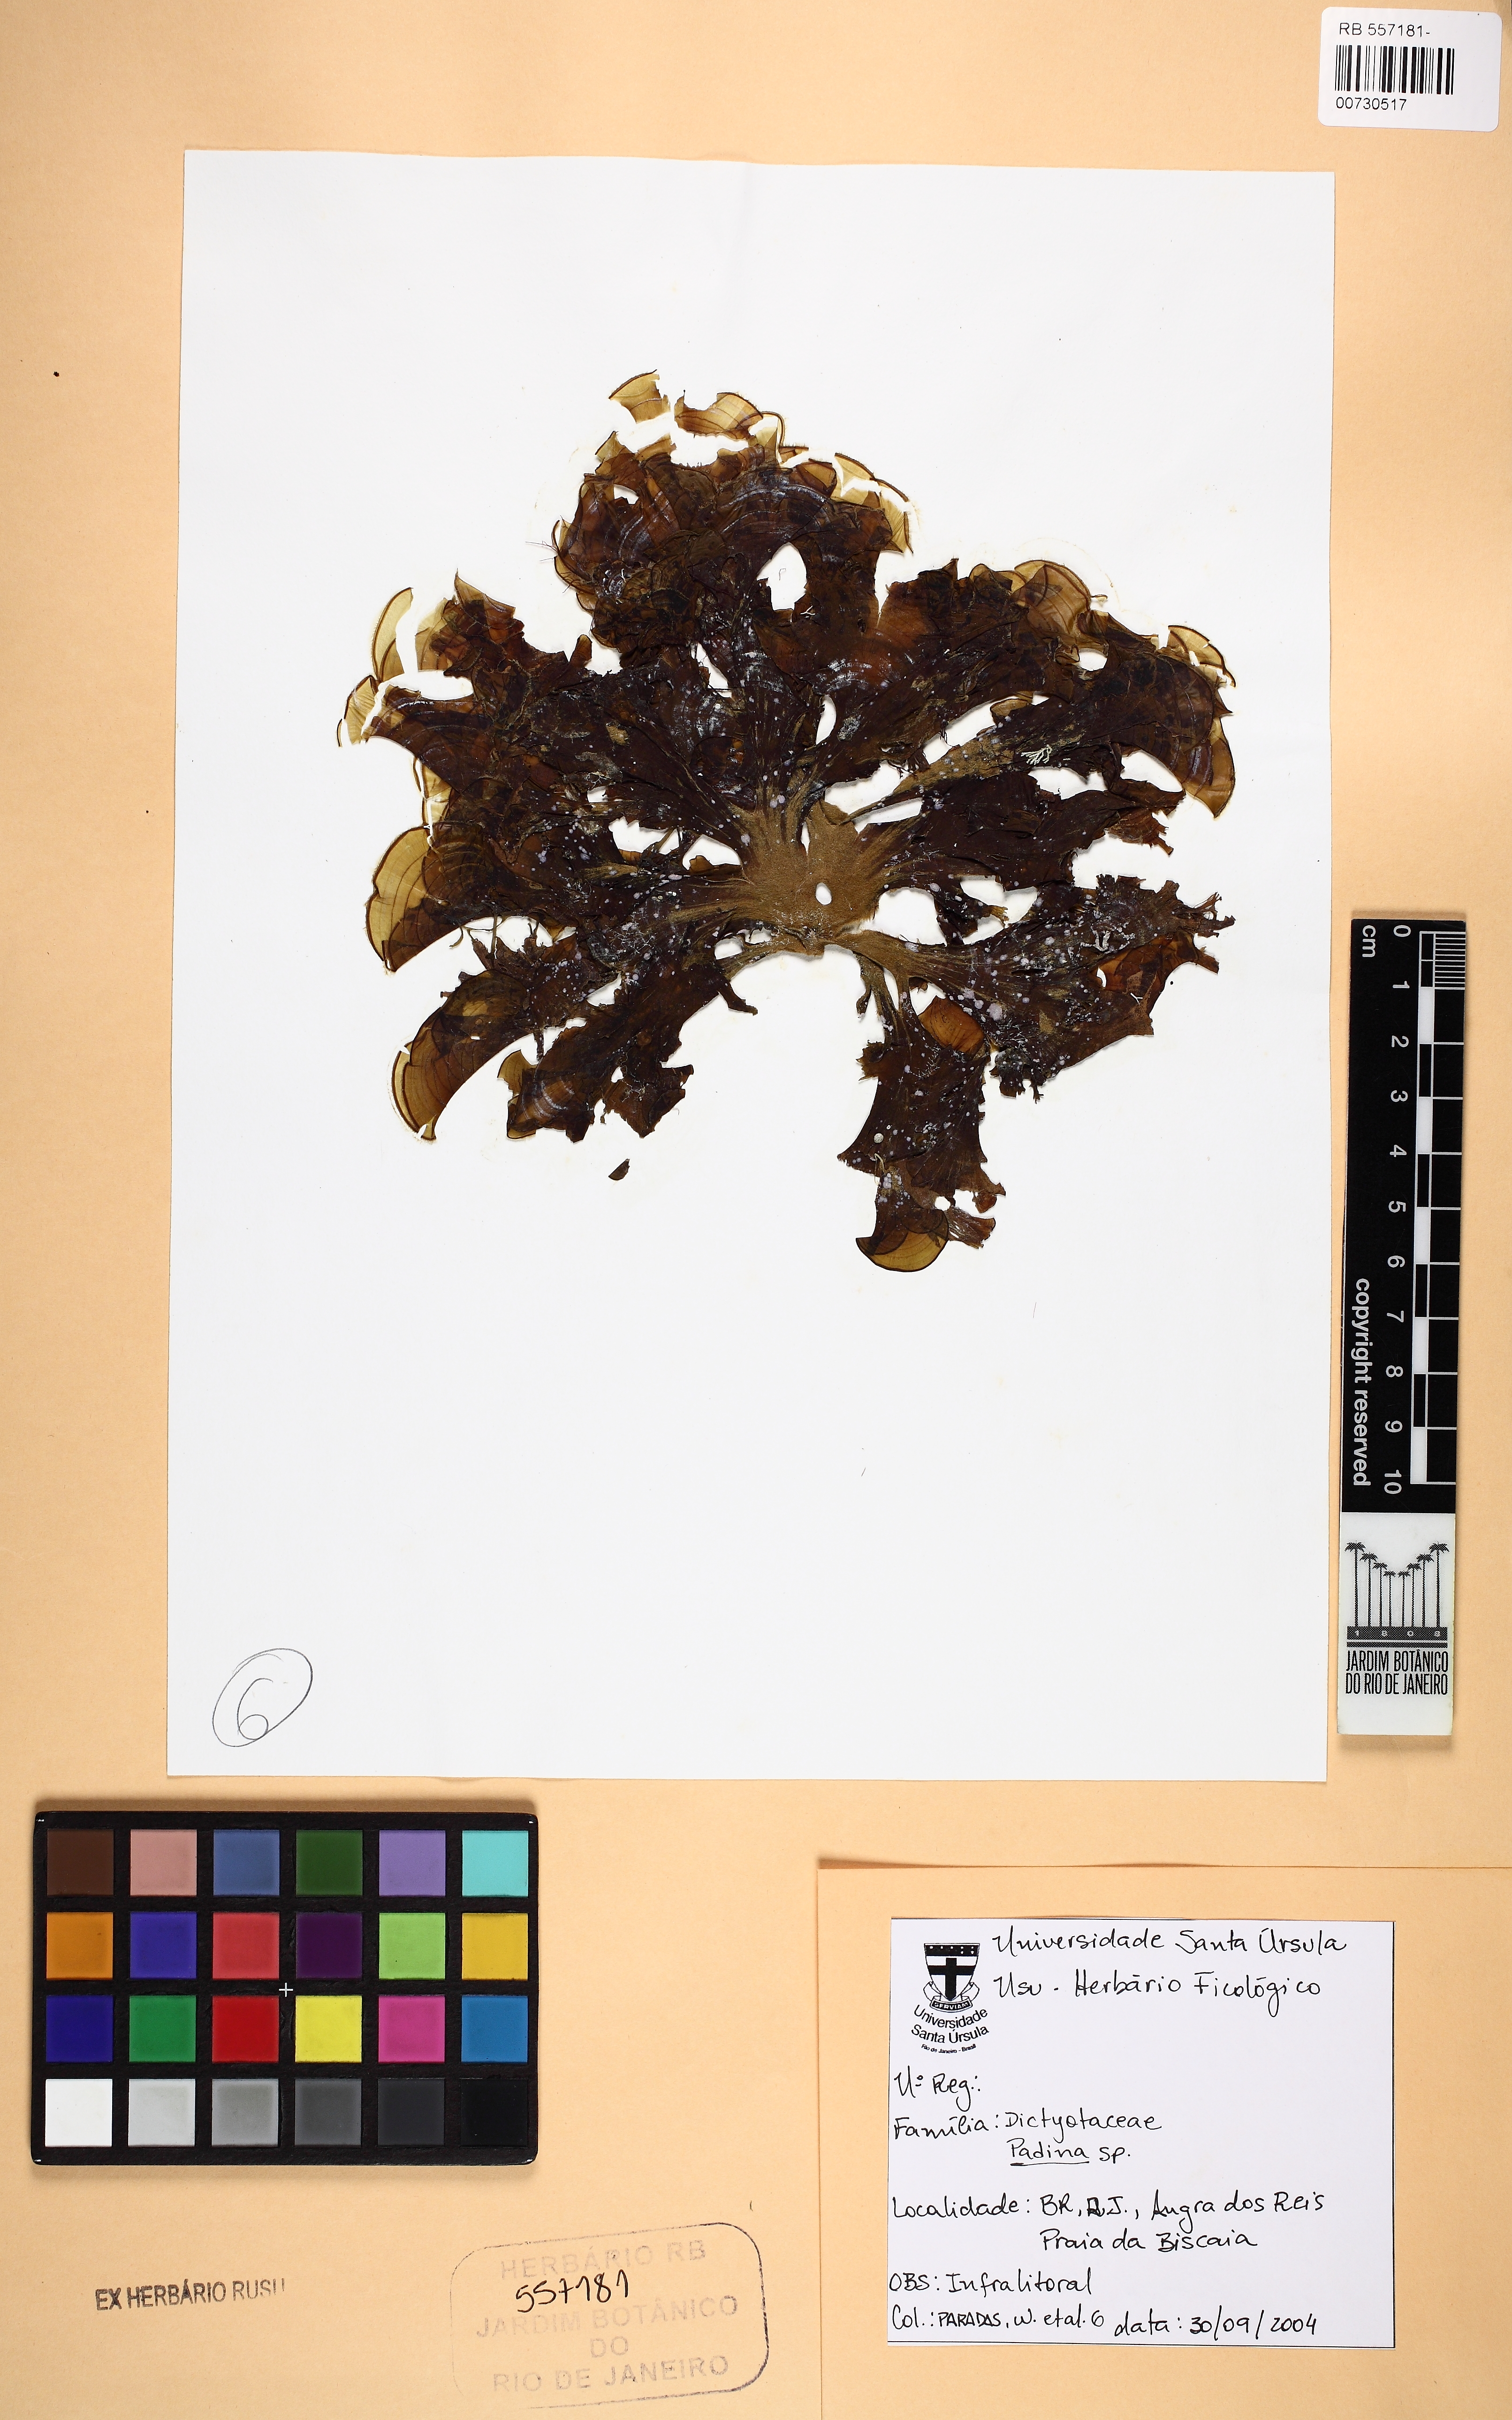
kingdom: Chromista
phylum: Ochrophyta
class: Phaeophyceae
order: Dictyotales
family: Dictyotaceae
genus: Padina
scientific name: Padina
